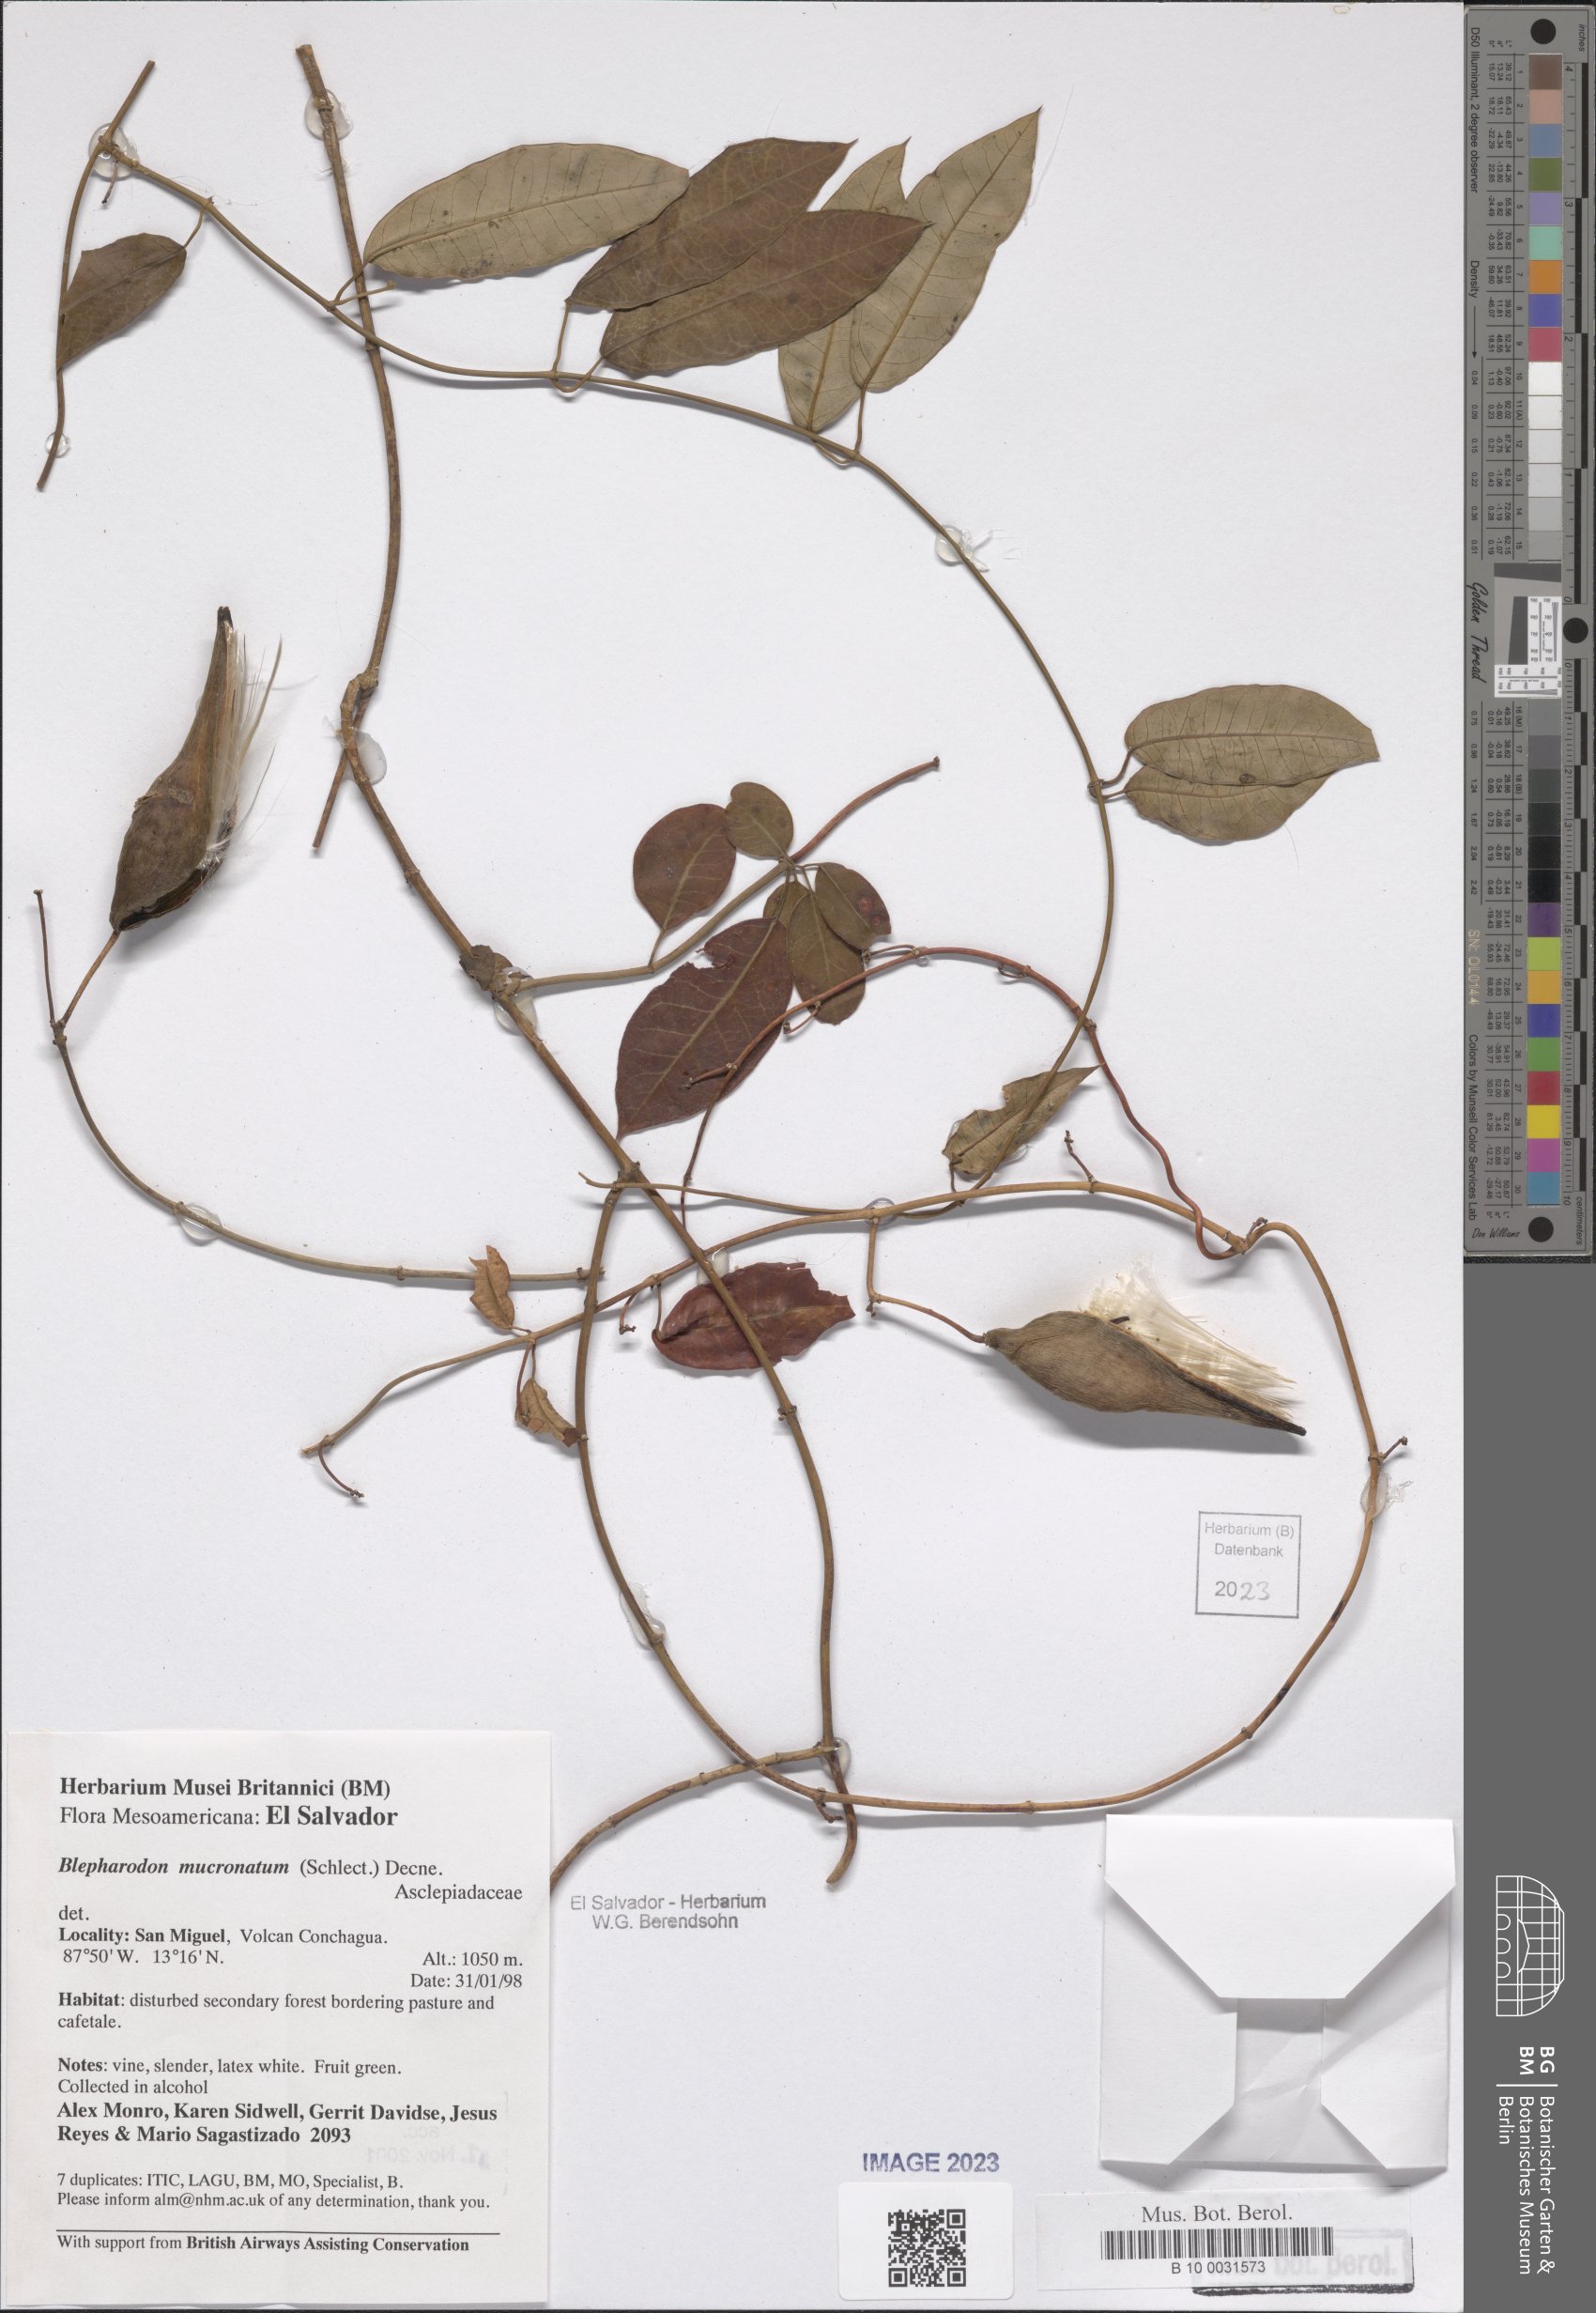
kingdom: Plantae
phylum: Tracheophyta
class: Magnoliopsida
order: Gentianales
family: Apocynaceae
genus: Vailia
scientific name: Vailia anomala
